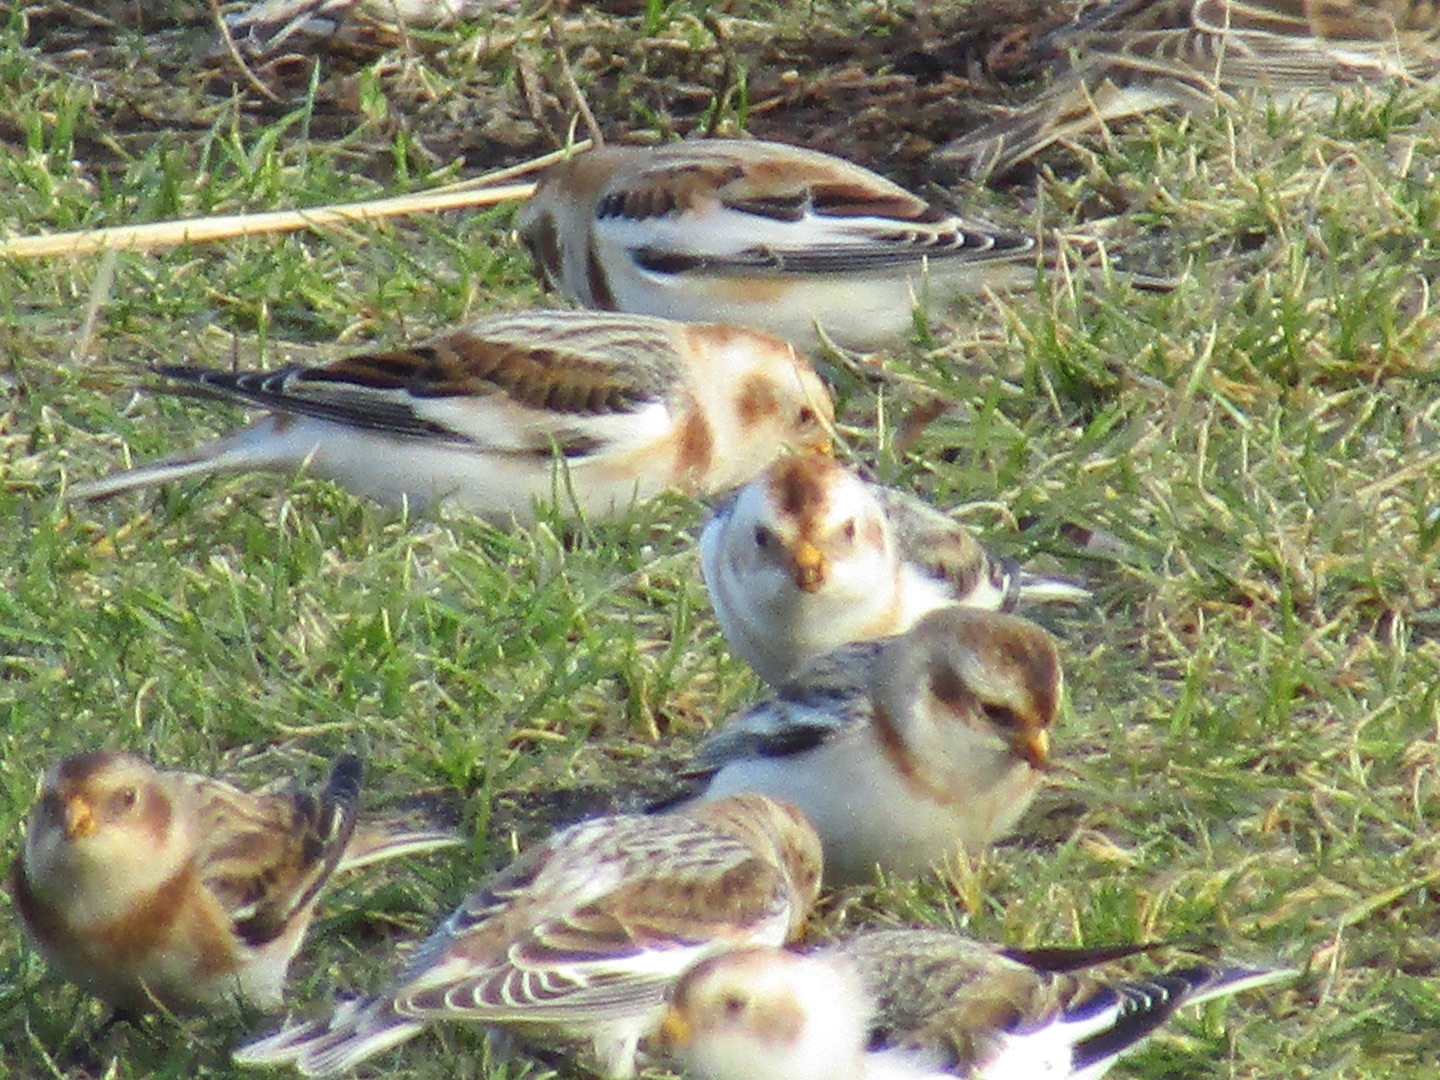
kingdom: Animalia
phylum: Chordata
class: Aves
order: Passeriformes
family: Calcariidae
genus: Plectrophenax
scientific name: Plectrophenax nivalis
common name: Snespurv
